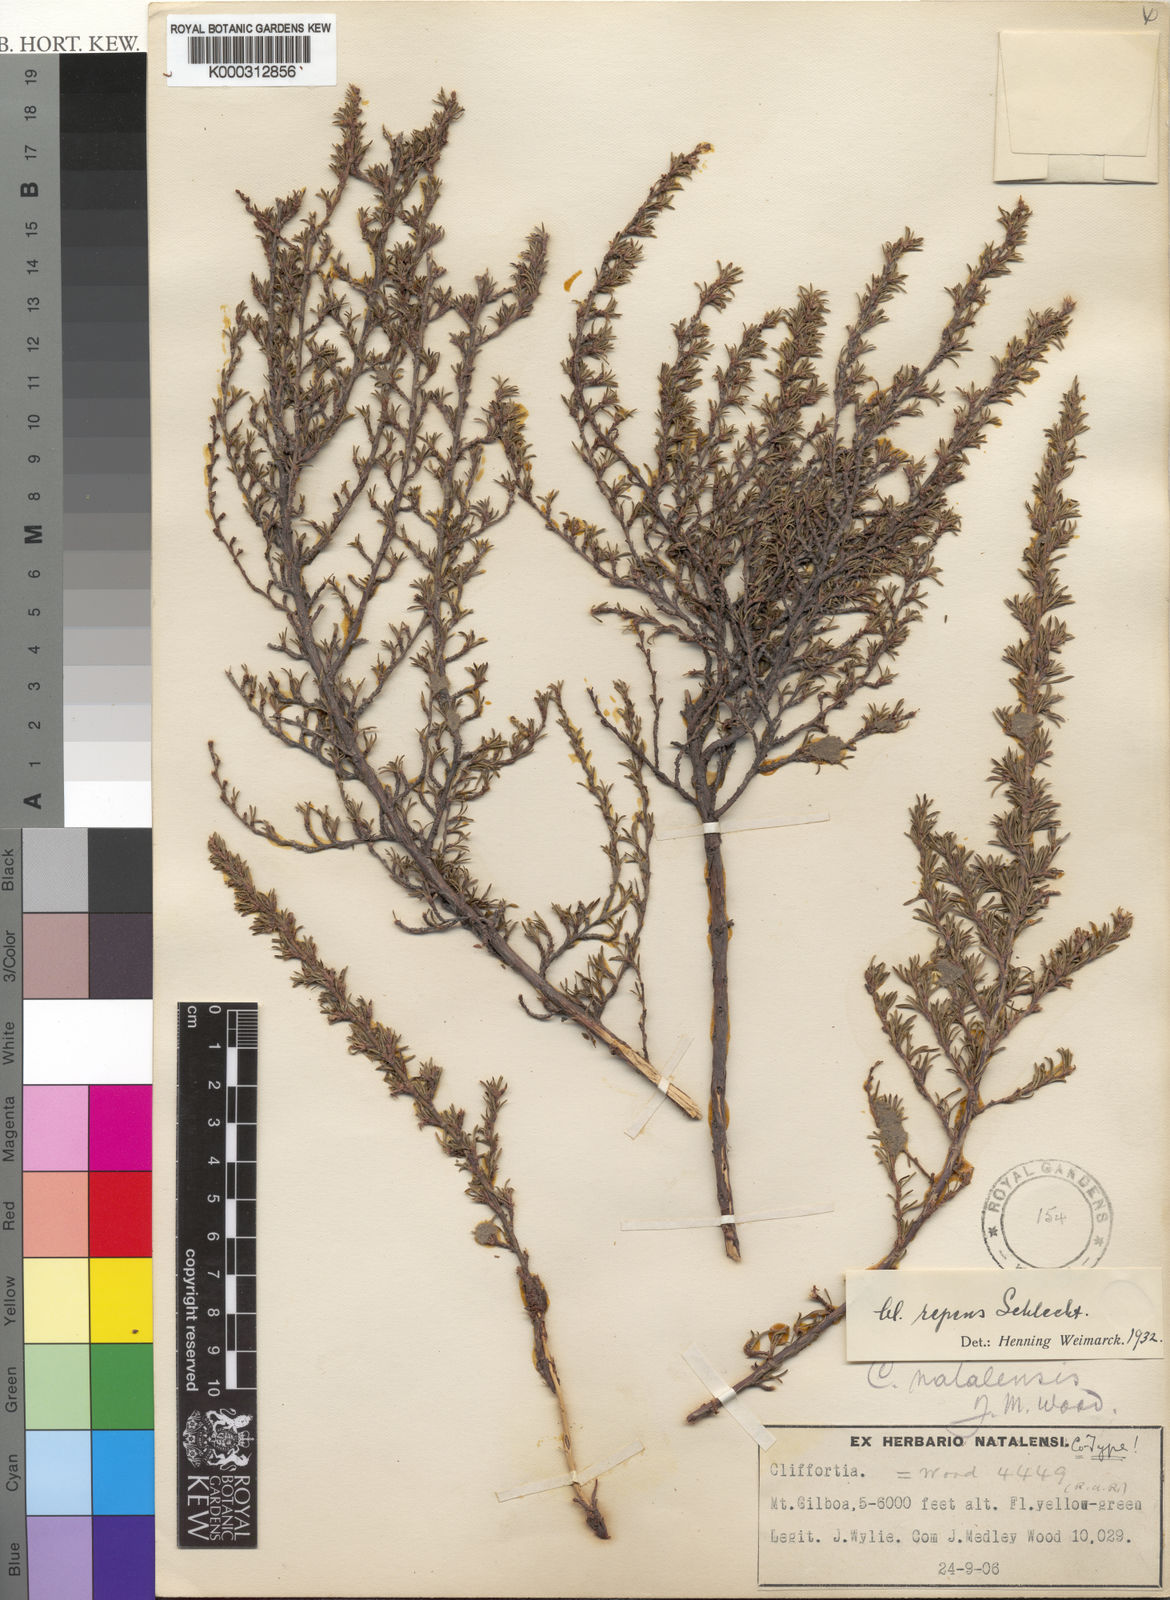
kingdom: Plantae
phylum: Tracheophyta
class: Magnoliopsida
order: Rosales
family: Rosaceae
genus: Cliffortia
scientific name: Cliffortia repens
